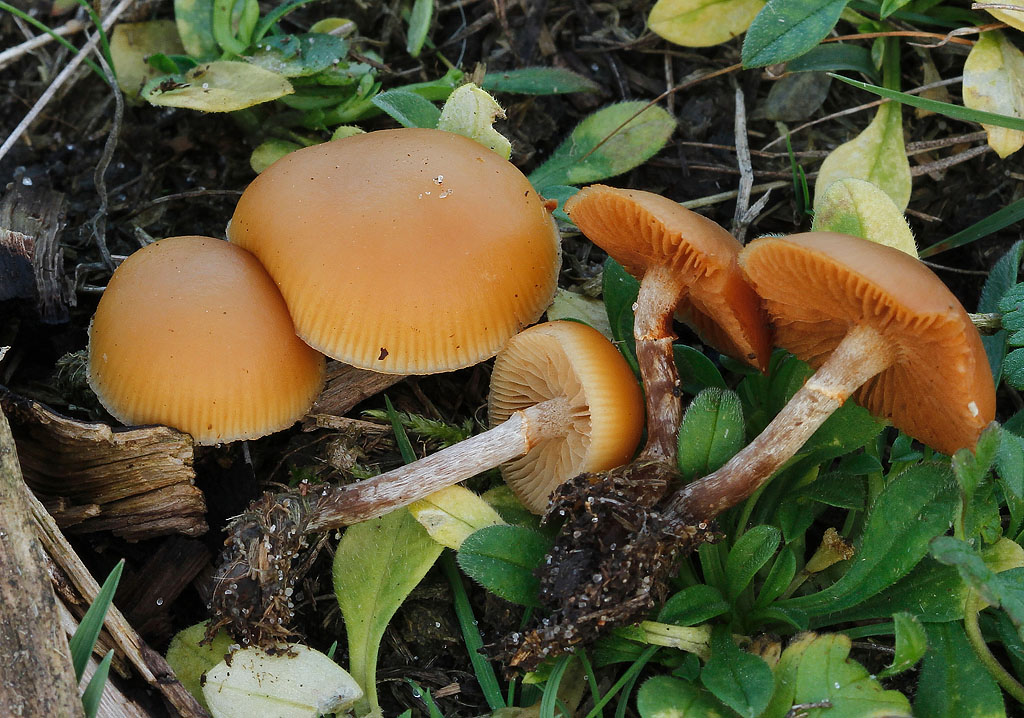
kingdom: Fungi
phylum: Basidiomycota
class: Agaricomycetes
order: Agaricales
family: Hymenogastraceae
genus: Galerina
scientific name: Galerina esteve-raventosii
